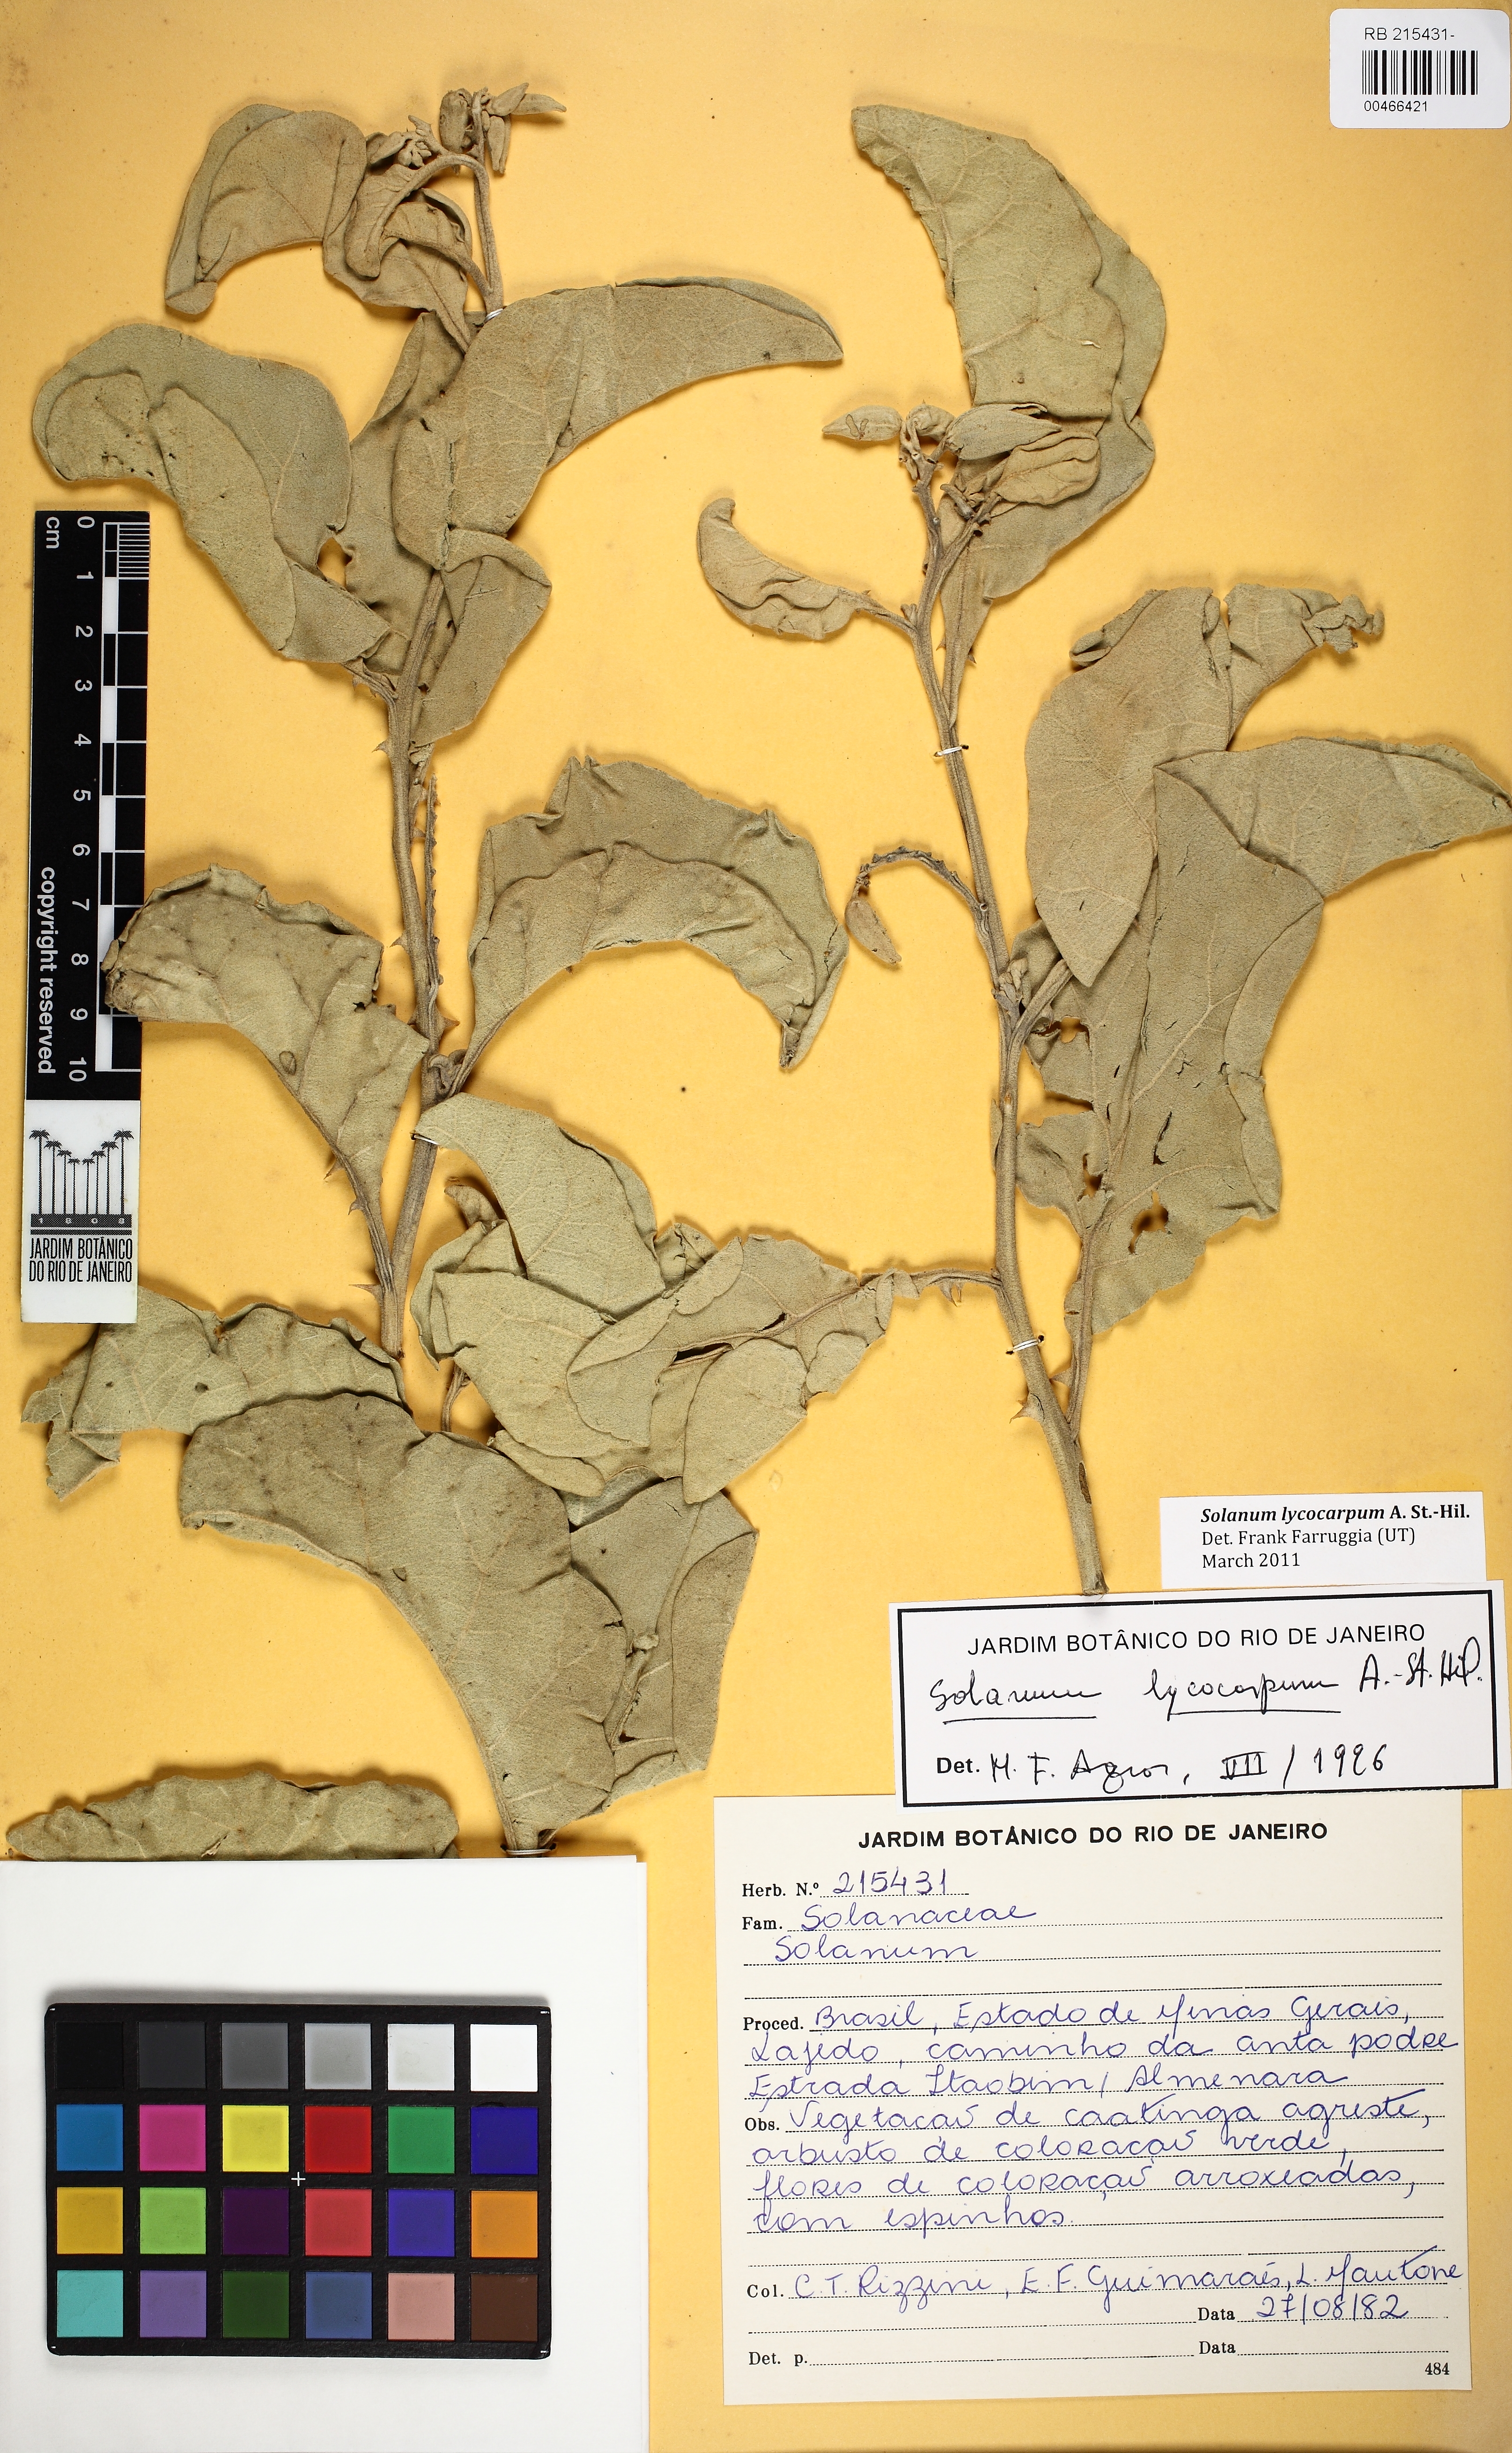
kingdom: Plantae
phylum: Tracheophyta
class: Magnoliopsida
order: Solanales
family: Solanaceae
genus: Solanum
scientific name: Solanum lycocarpum
